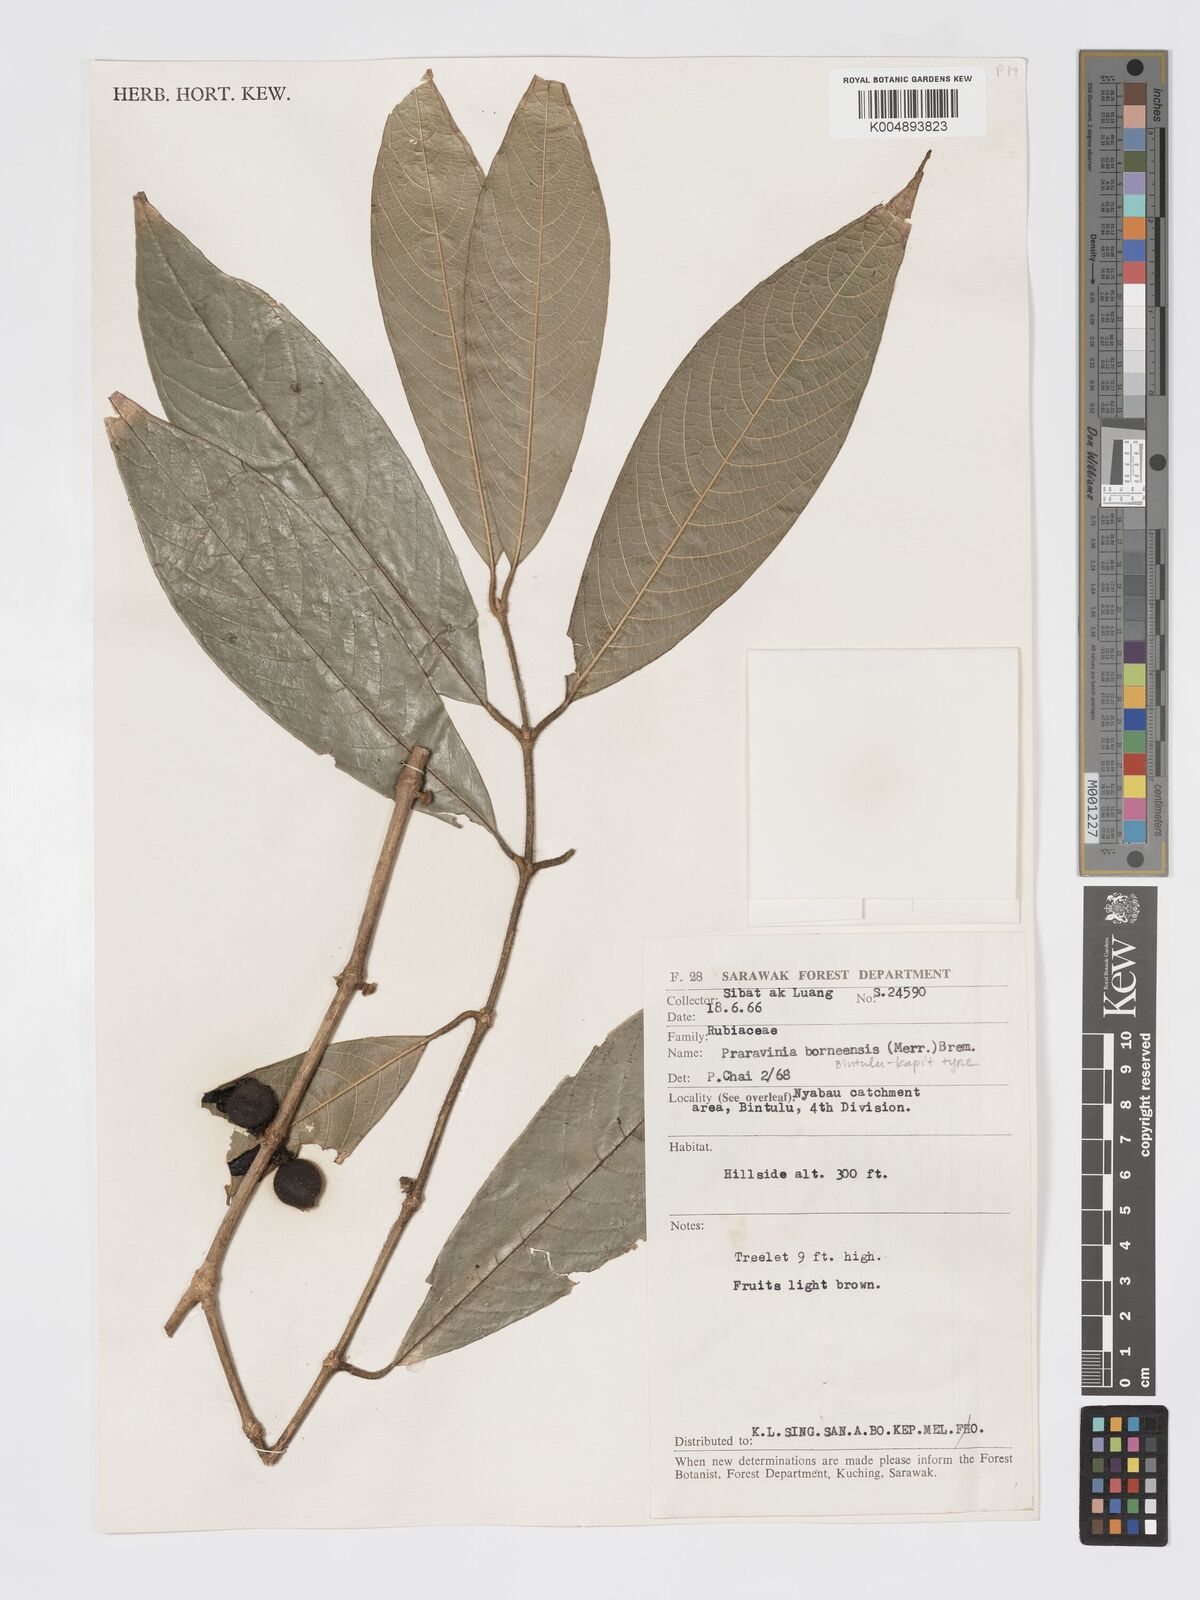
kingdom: Plantae
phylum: Tracheophyta
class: Magnoliopsida
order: Gentianales
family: Rubiaceae
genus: Praravinia
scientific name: Praravinia borneensis
